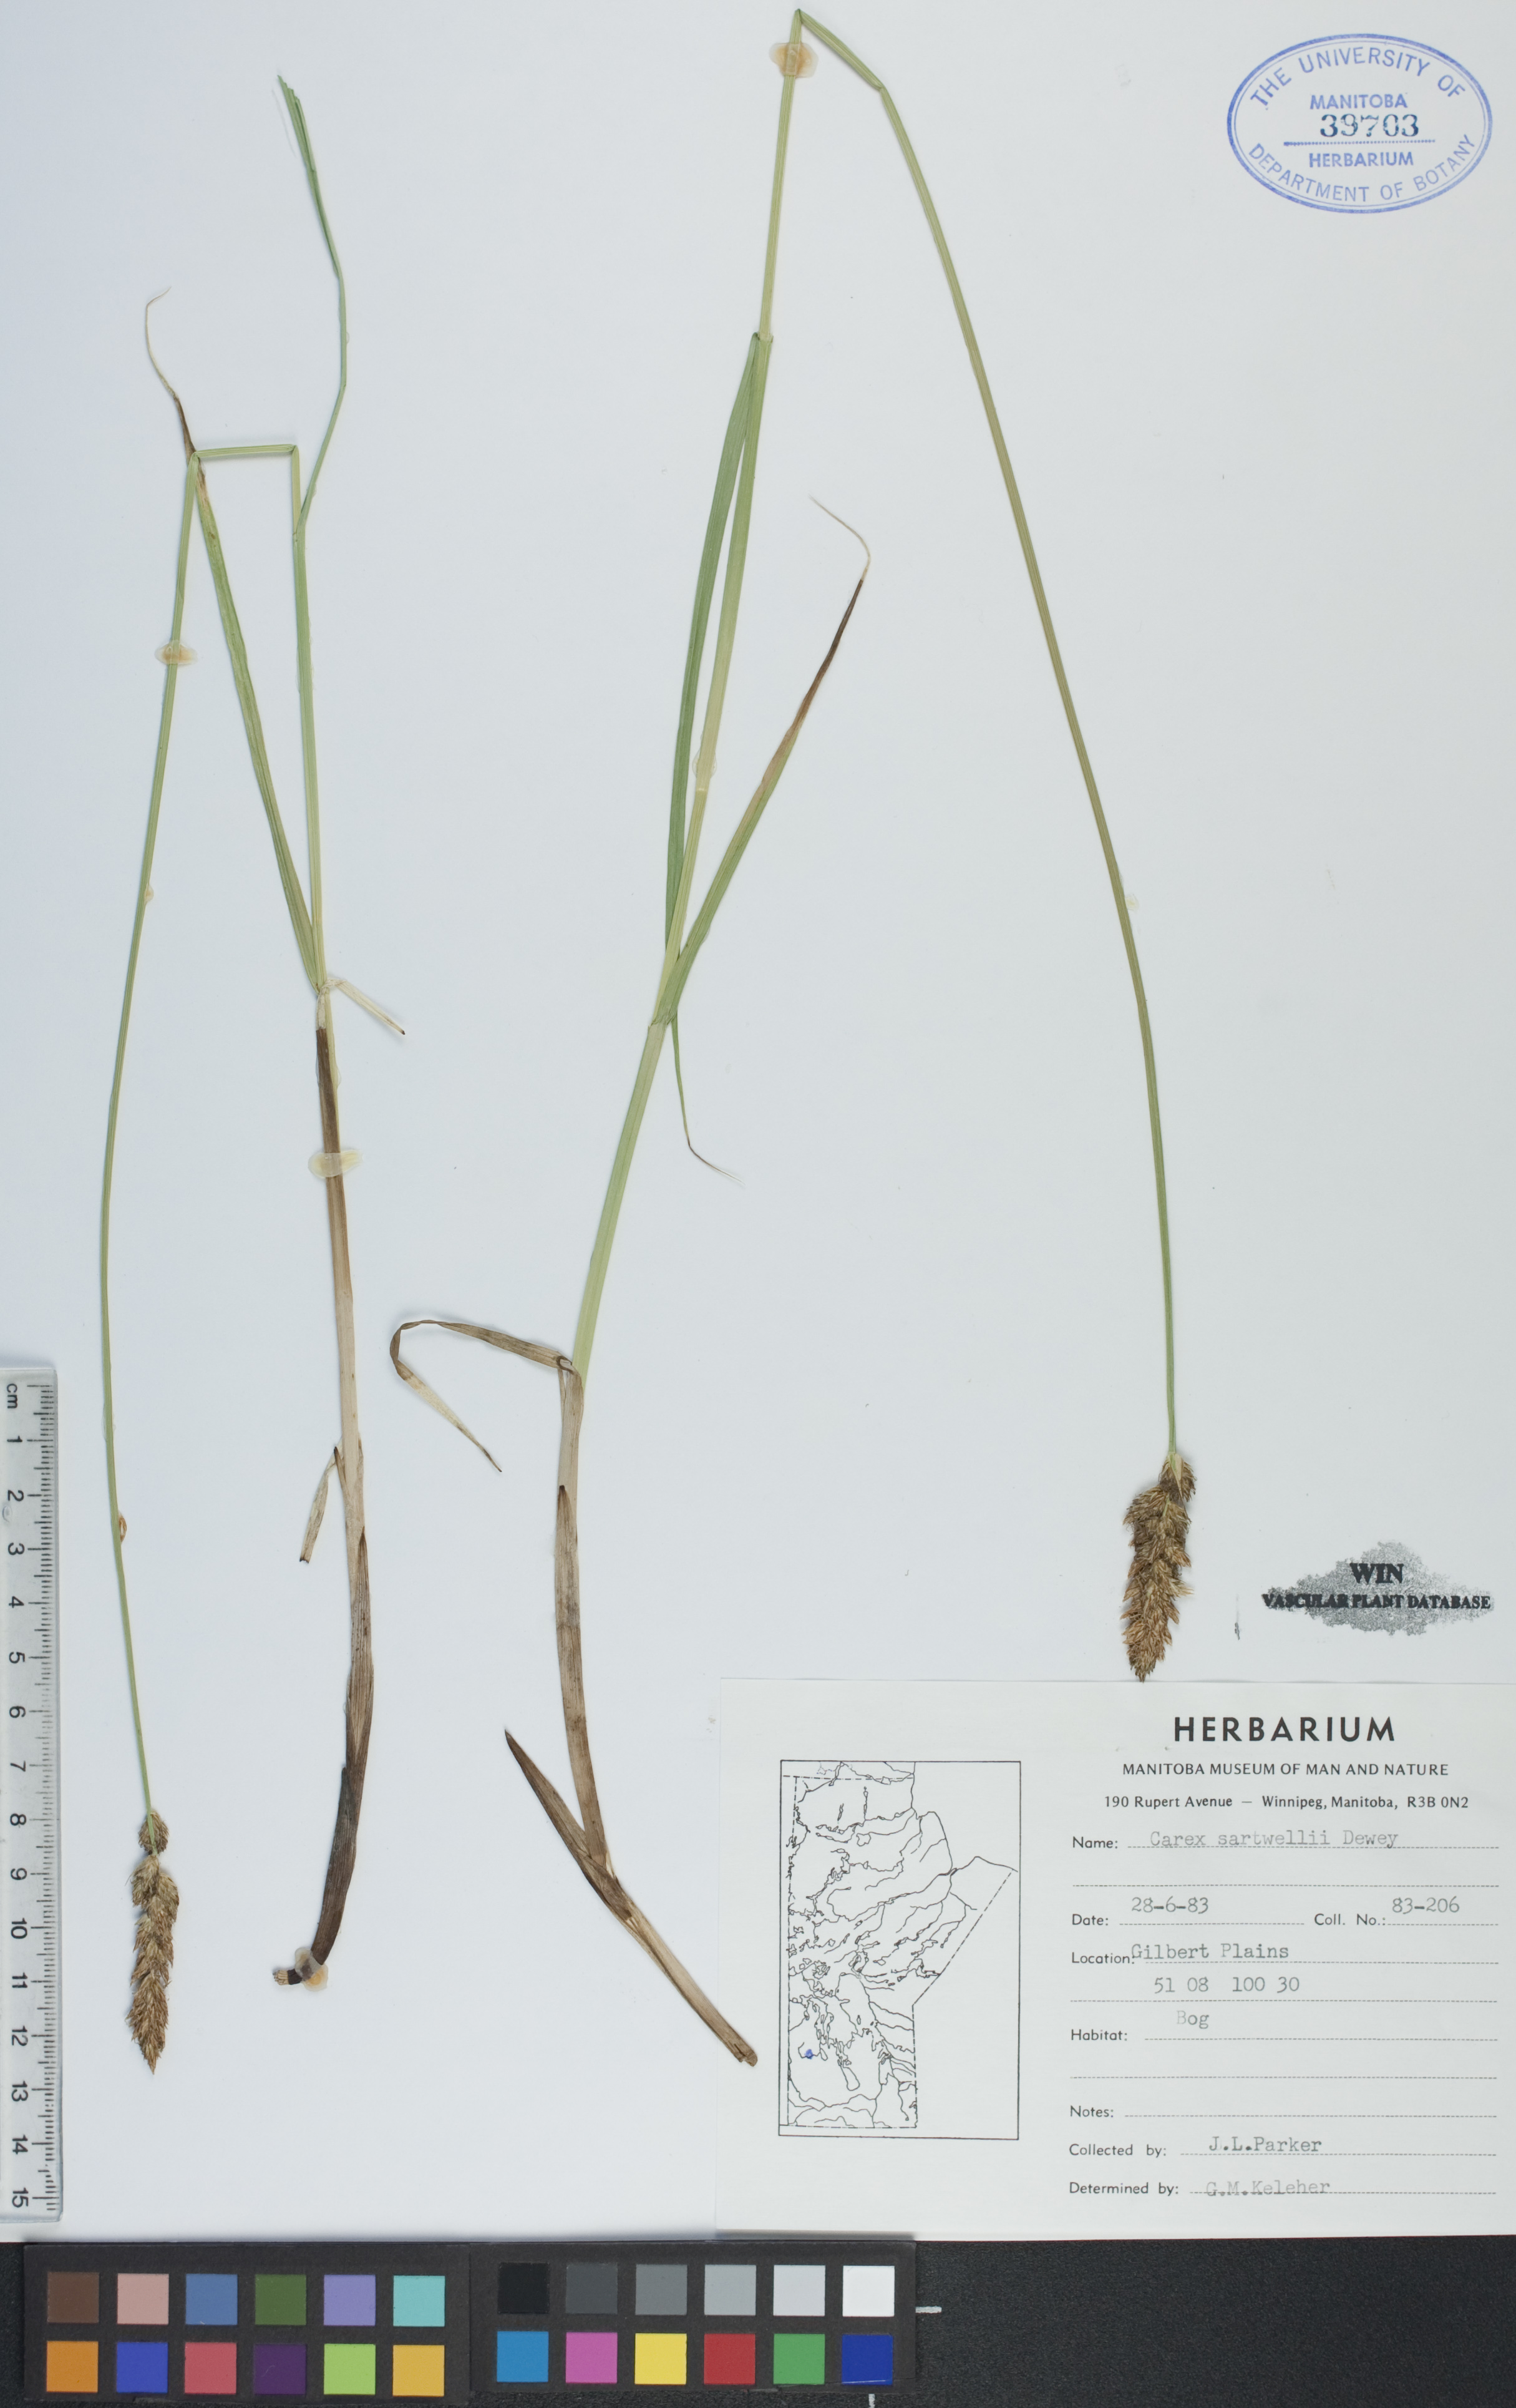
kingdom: Plantae
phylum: Tracheophyta
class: Liliopsida
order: Poales
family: Cyperaceae
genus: Carex
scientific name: Carex sartwellii
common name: Sartwell's sedge
